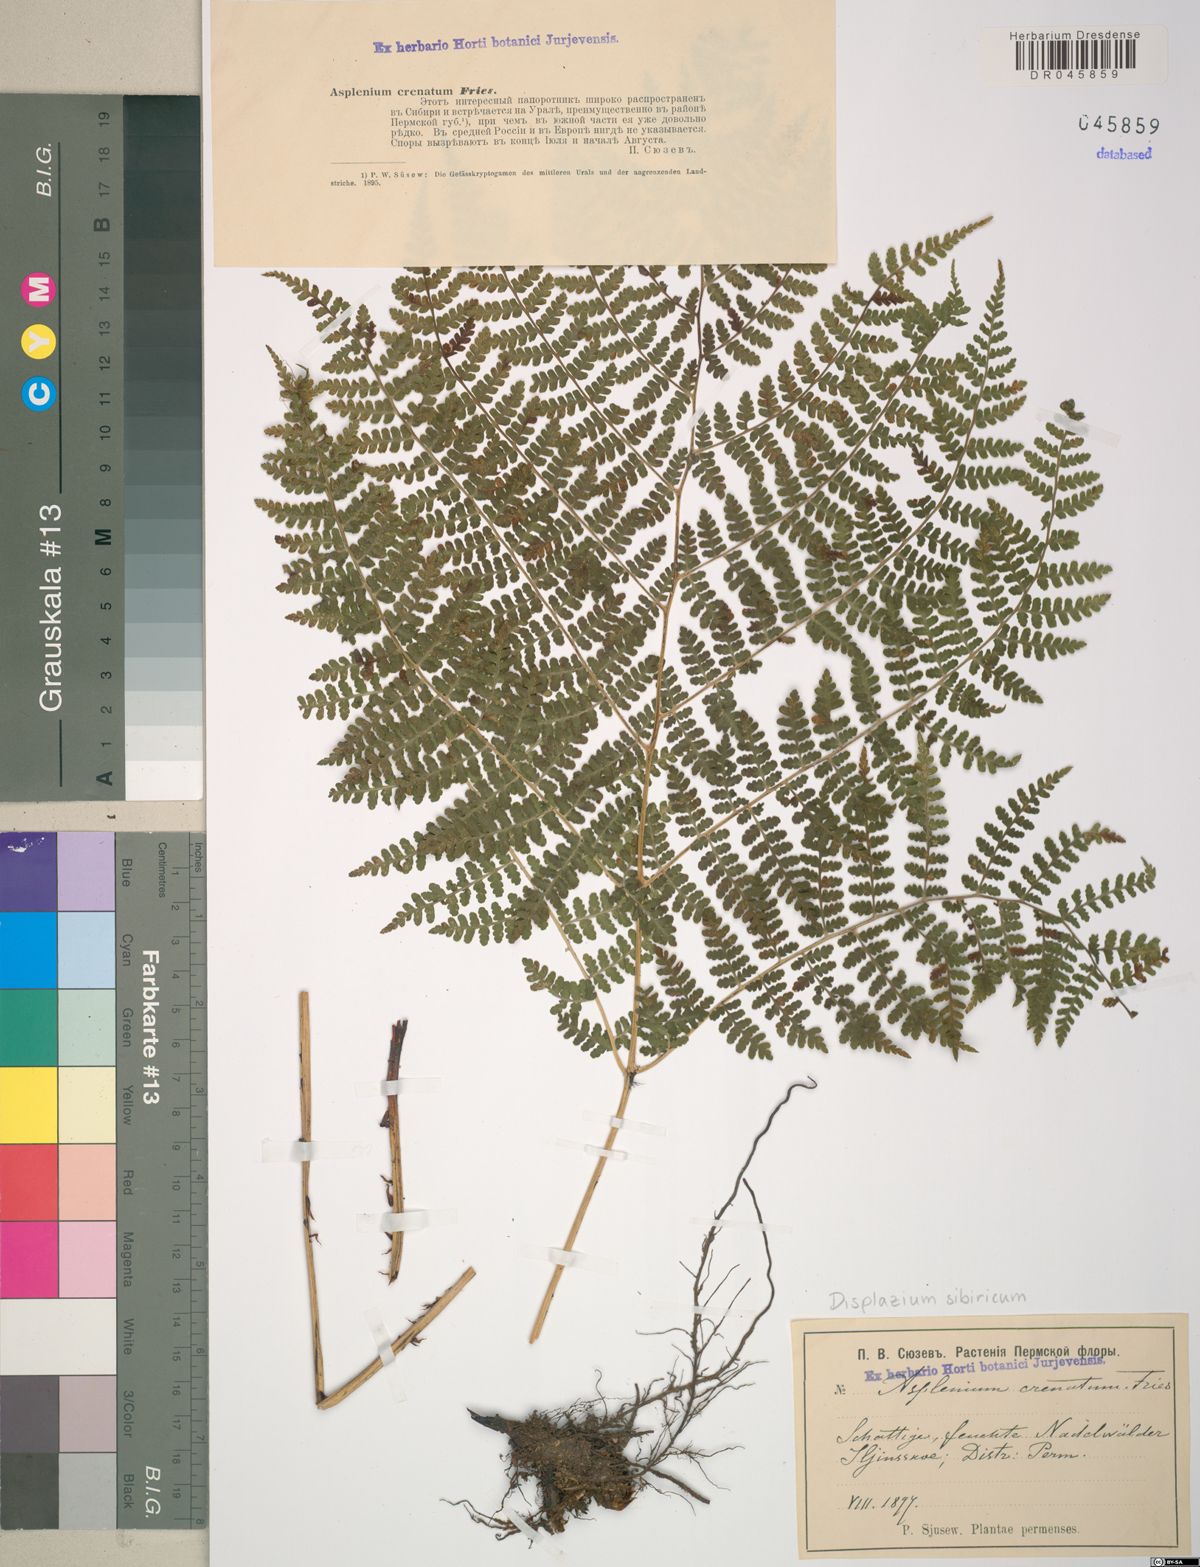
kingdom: Plantae
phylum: Tracheophyta
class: Polypodiopsida
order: Polypodiales
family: Athyriaceae
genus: Diplazium
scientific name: Diplazium sibiricum
